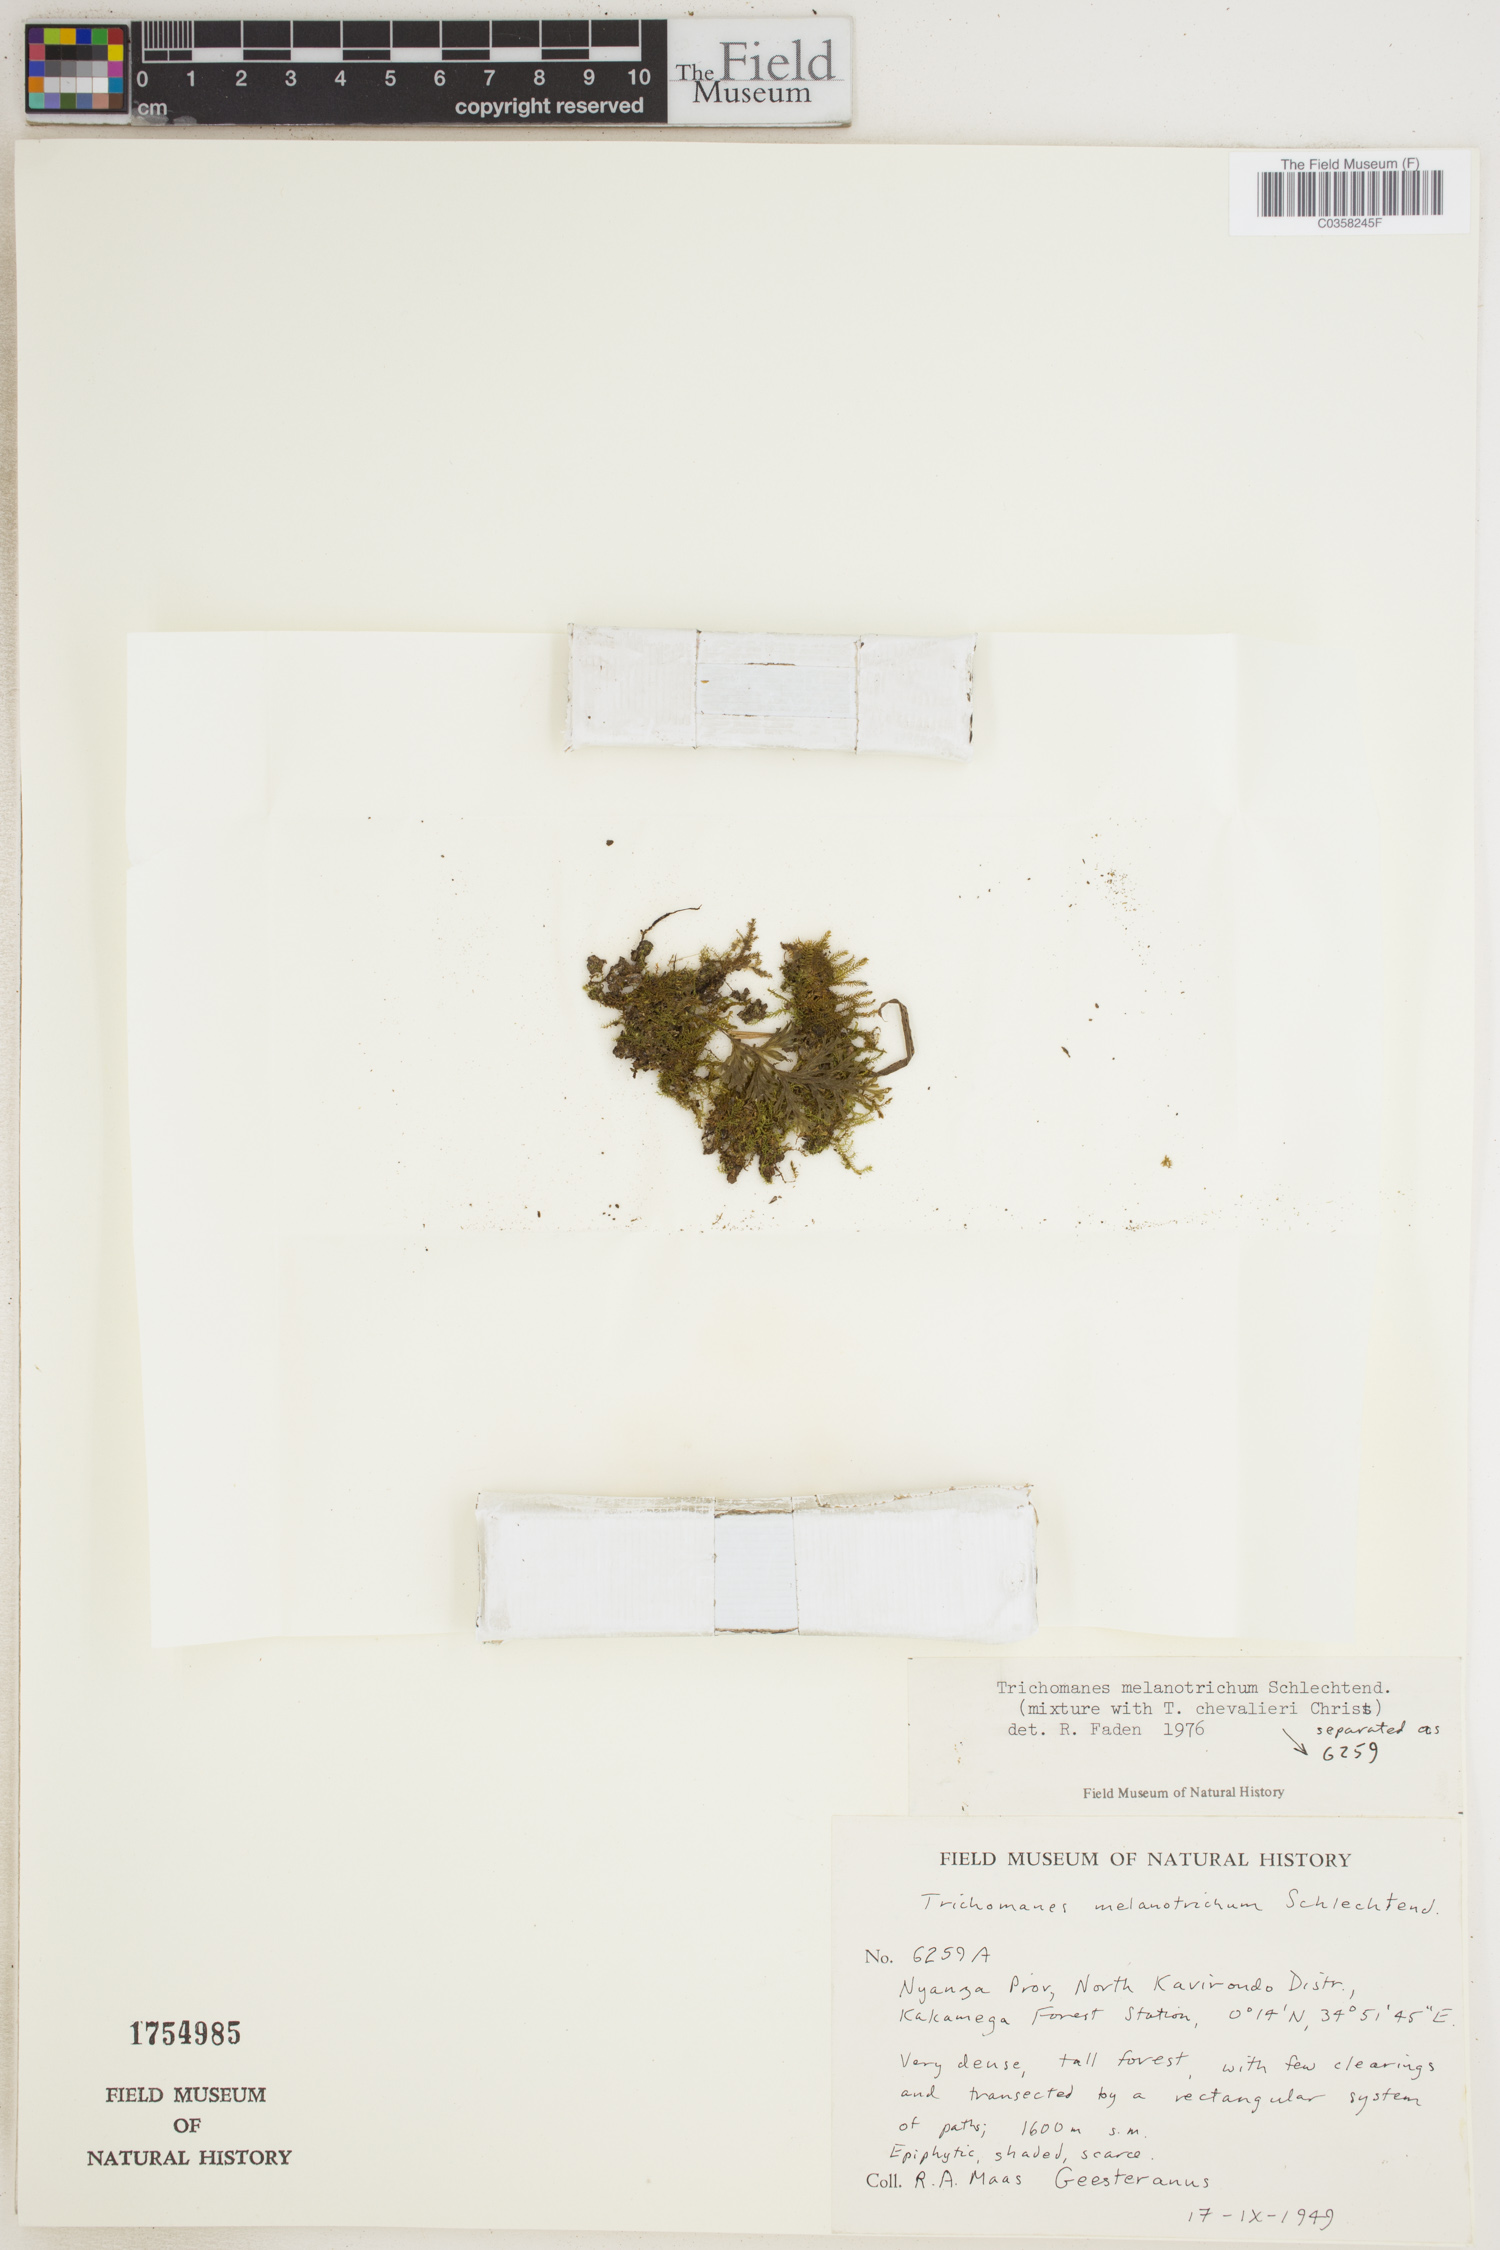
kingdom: Plantae
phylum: Tracheophyta
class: Polypodiopsida
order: Hymenophyllales
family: Hymenophyllaceae
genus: Crepidomanes
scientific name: Crepidomanes melanotrichum
